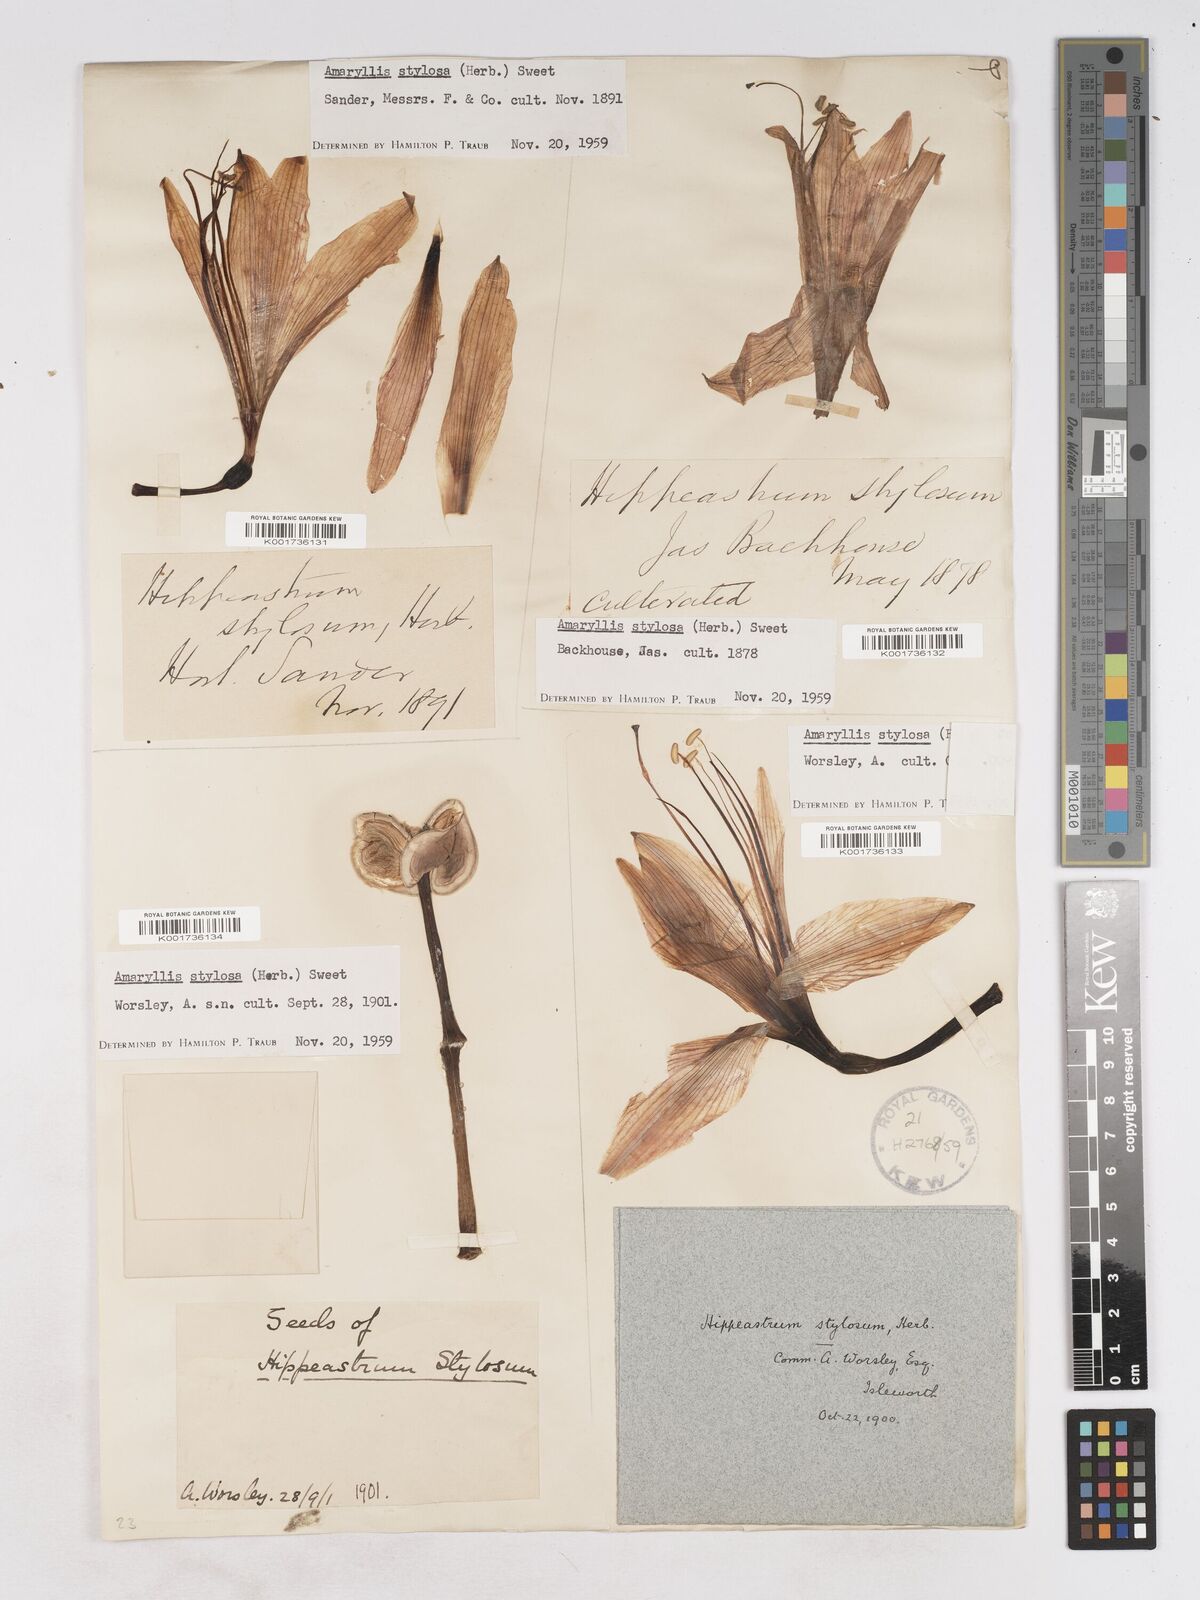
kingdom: Plantae
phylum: Tracheophyta
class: Liliopsida
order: Asparagales
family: Amaryllidaceae
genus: Hippeastrum
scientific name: Hippeastrum stylosum
